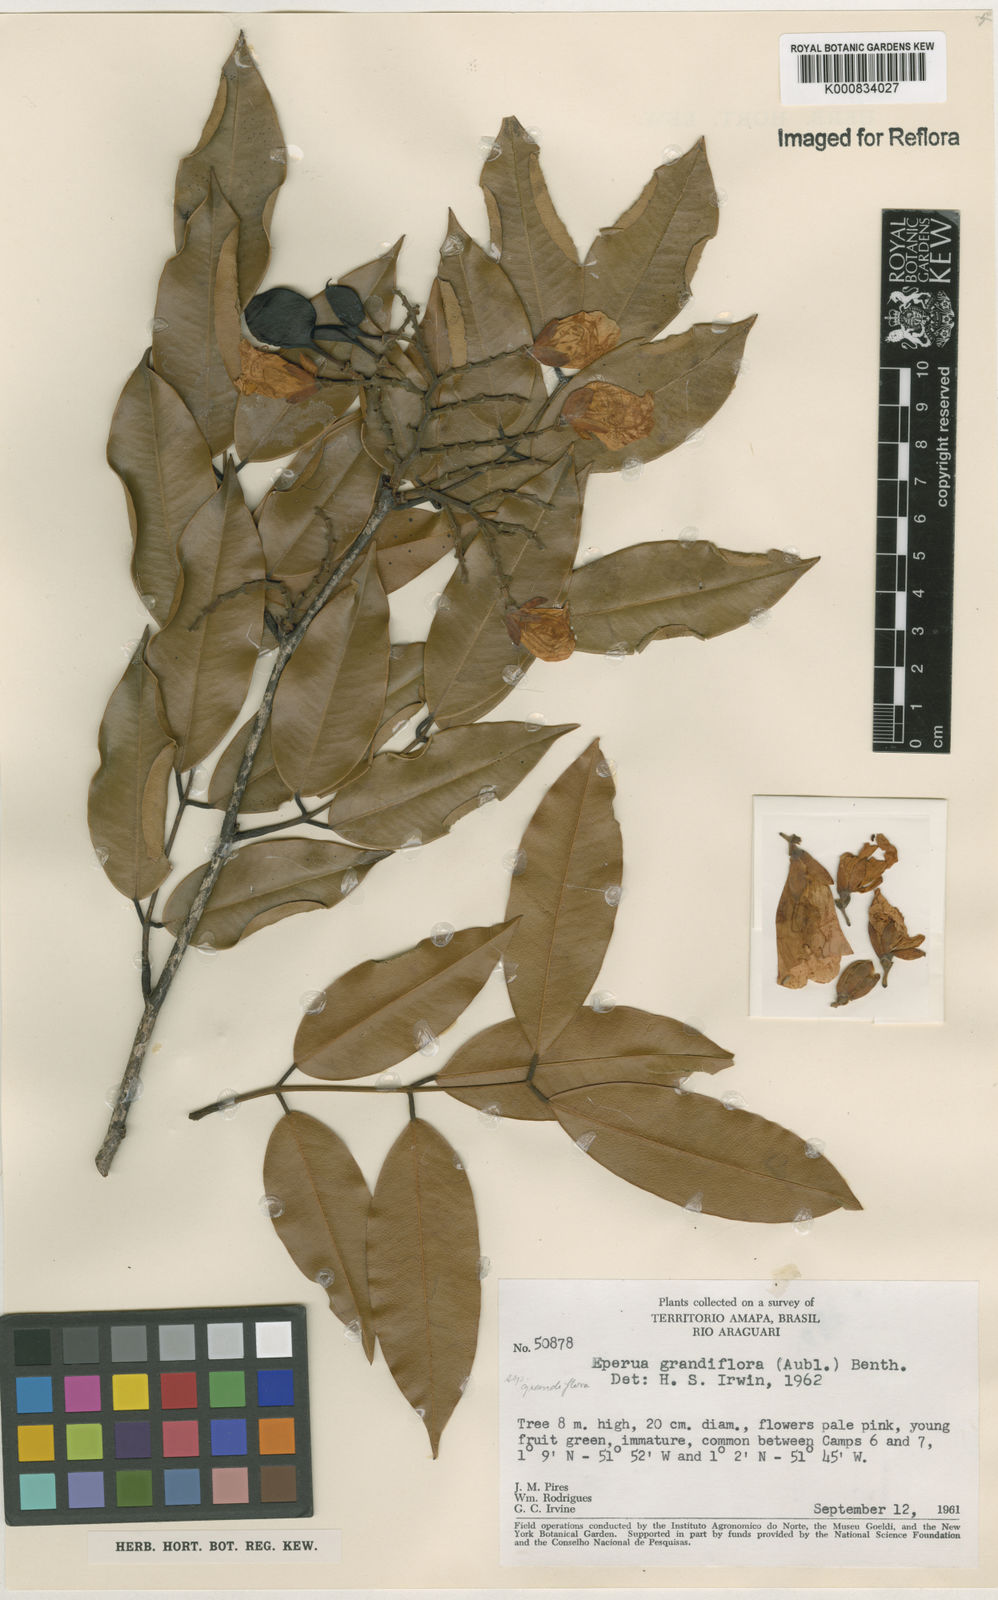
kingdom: Plantae
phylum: Tracheophyta
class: Magnoliopsida
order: Fabales
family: Fabaceae
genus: Eperua
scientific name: Eperua
